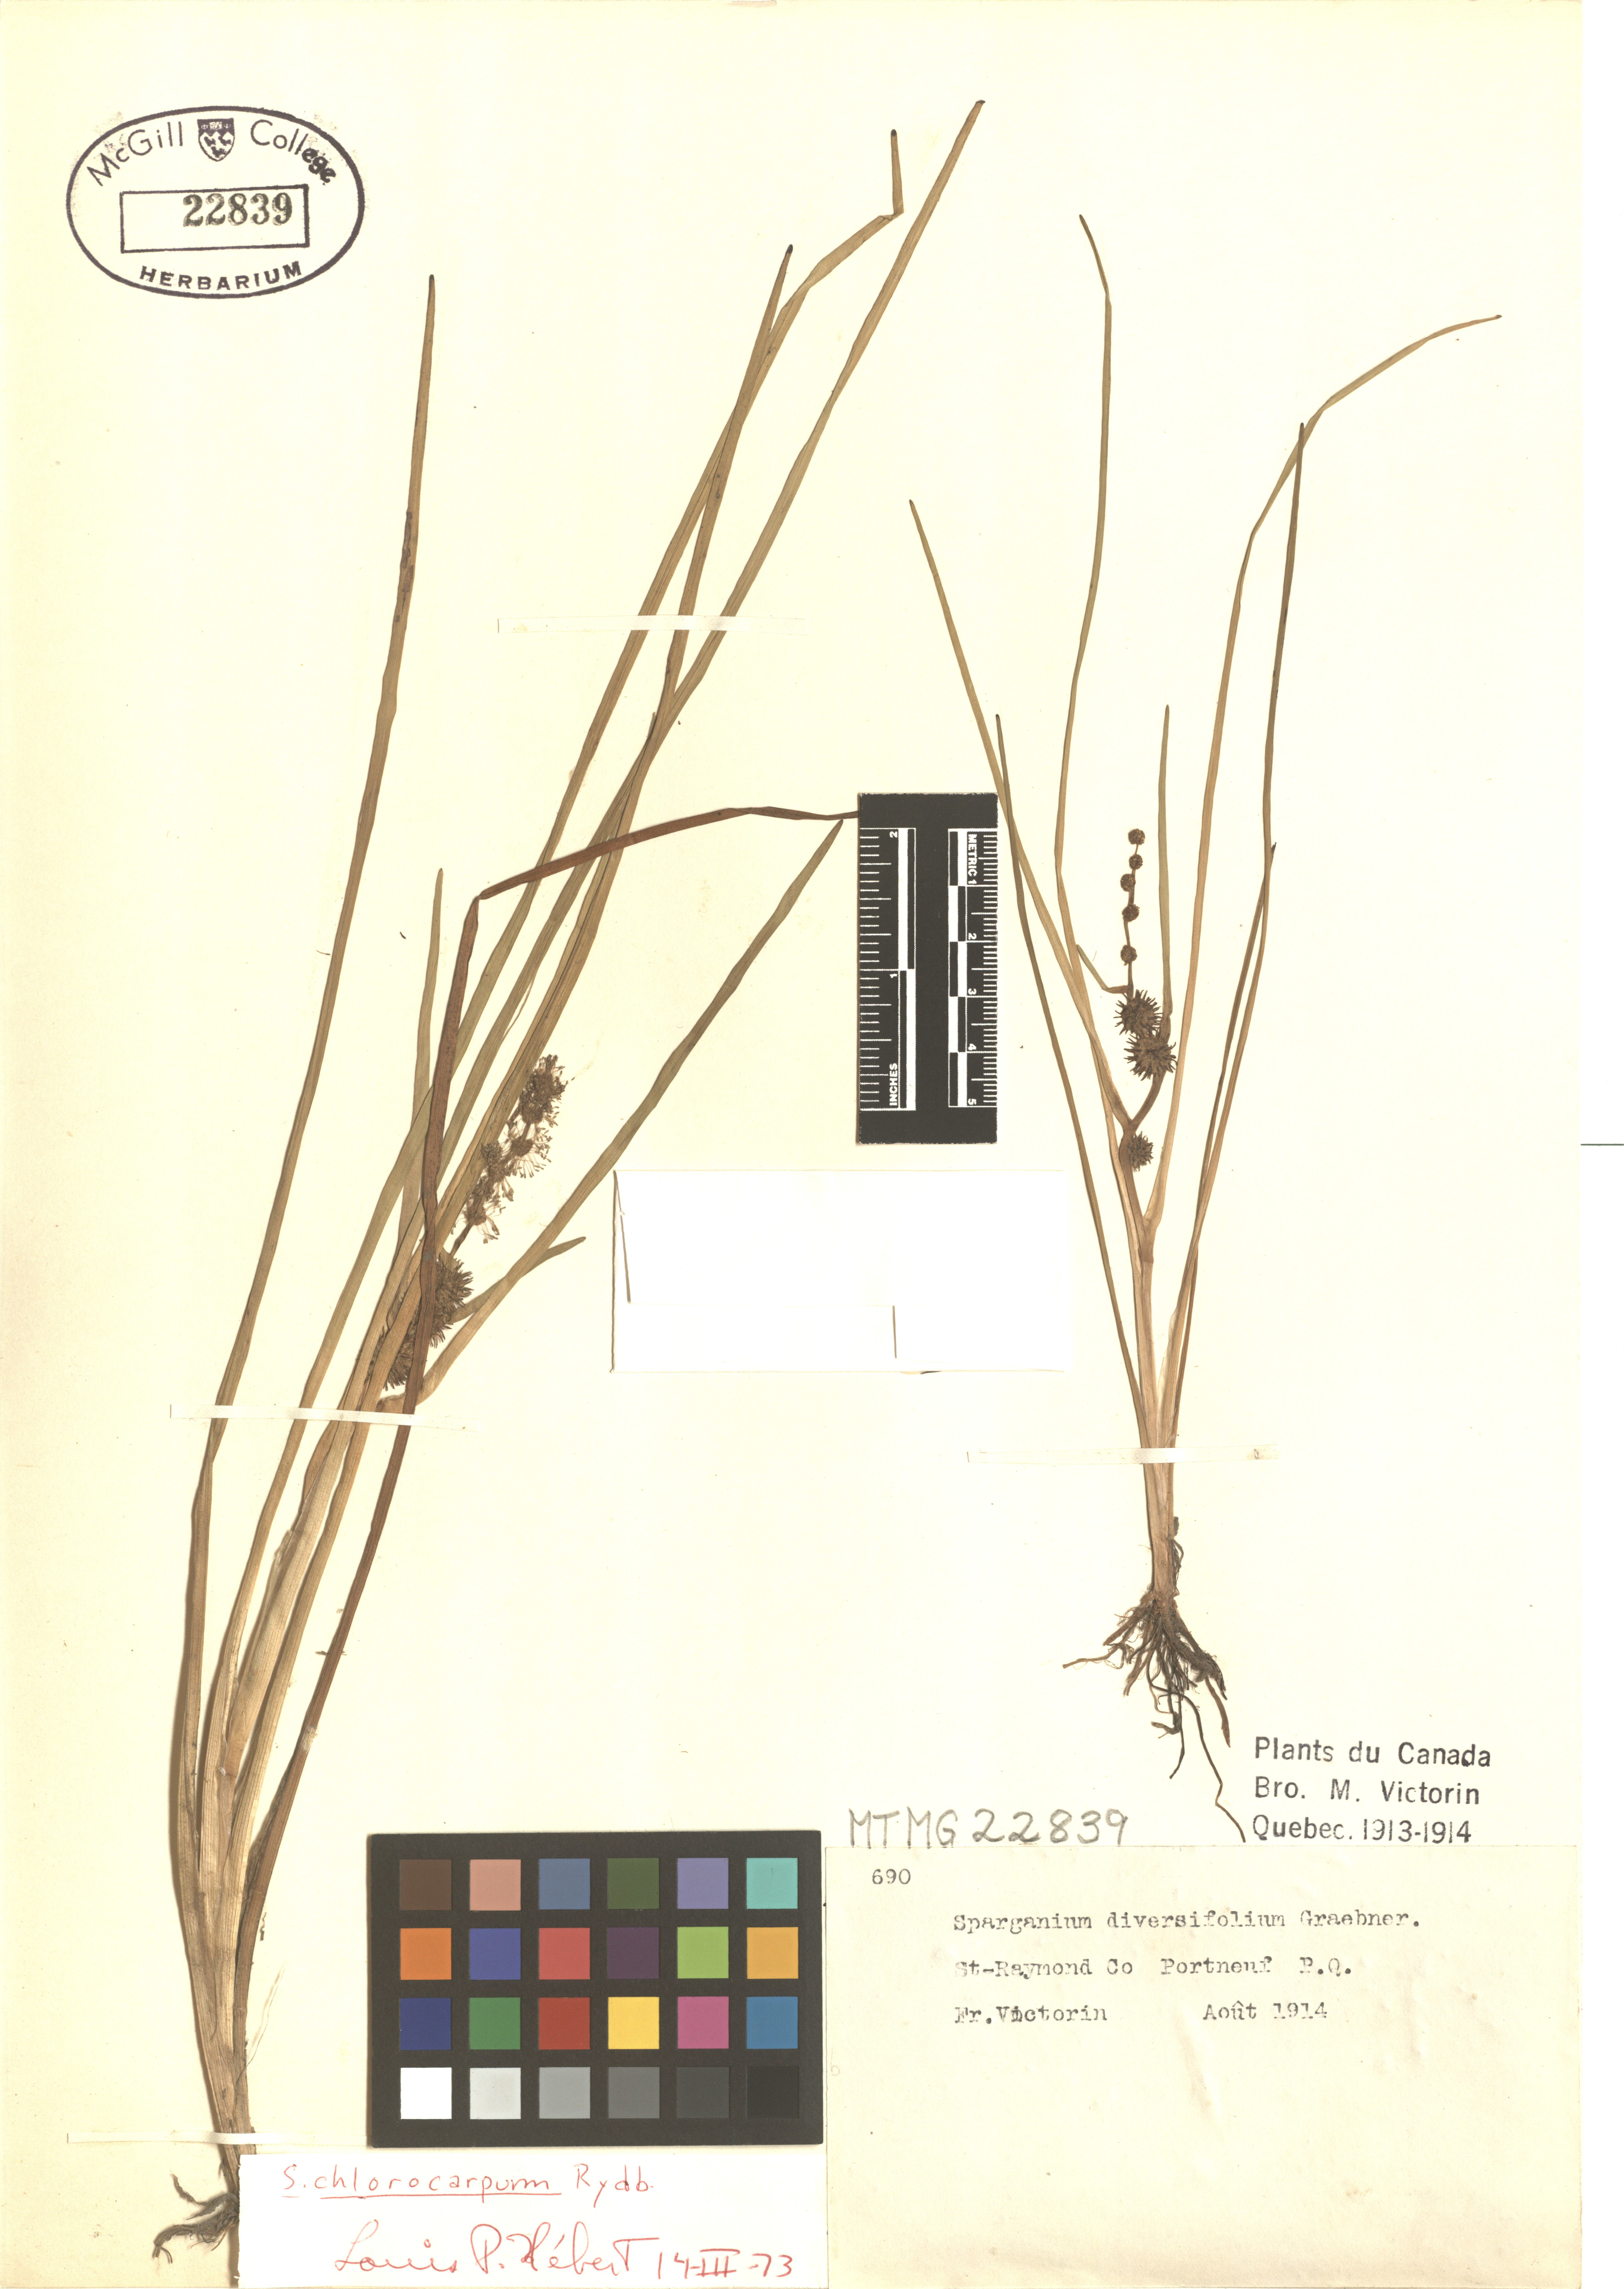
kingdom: Plantae
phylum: Tracheophyta
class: Liliopsida
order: Poales
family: Typhaceae
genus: Sparganium
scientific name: Sparganium emersum
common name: Unbranched bur-reed
